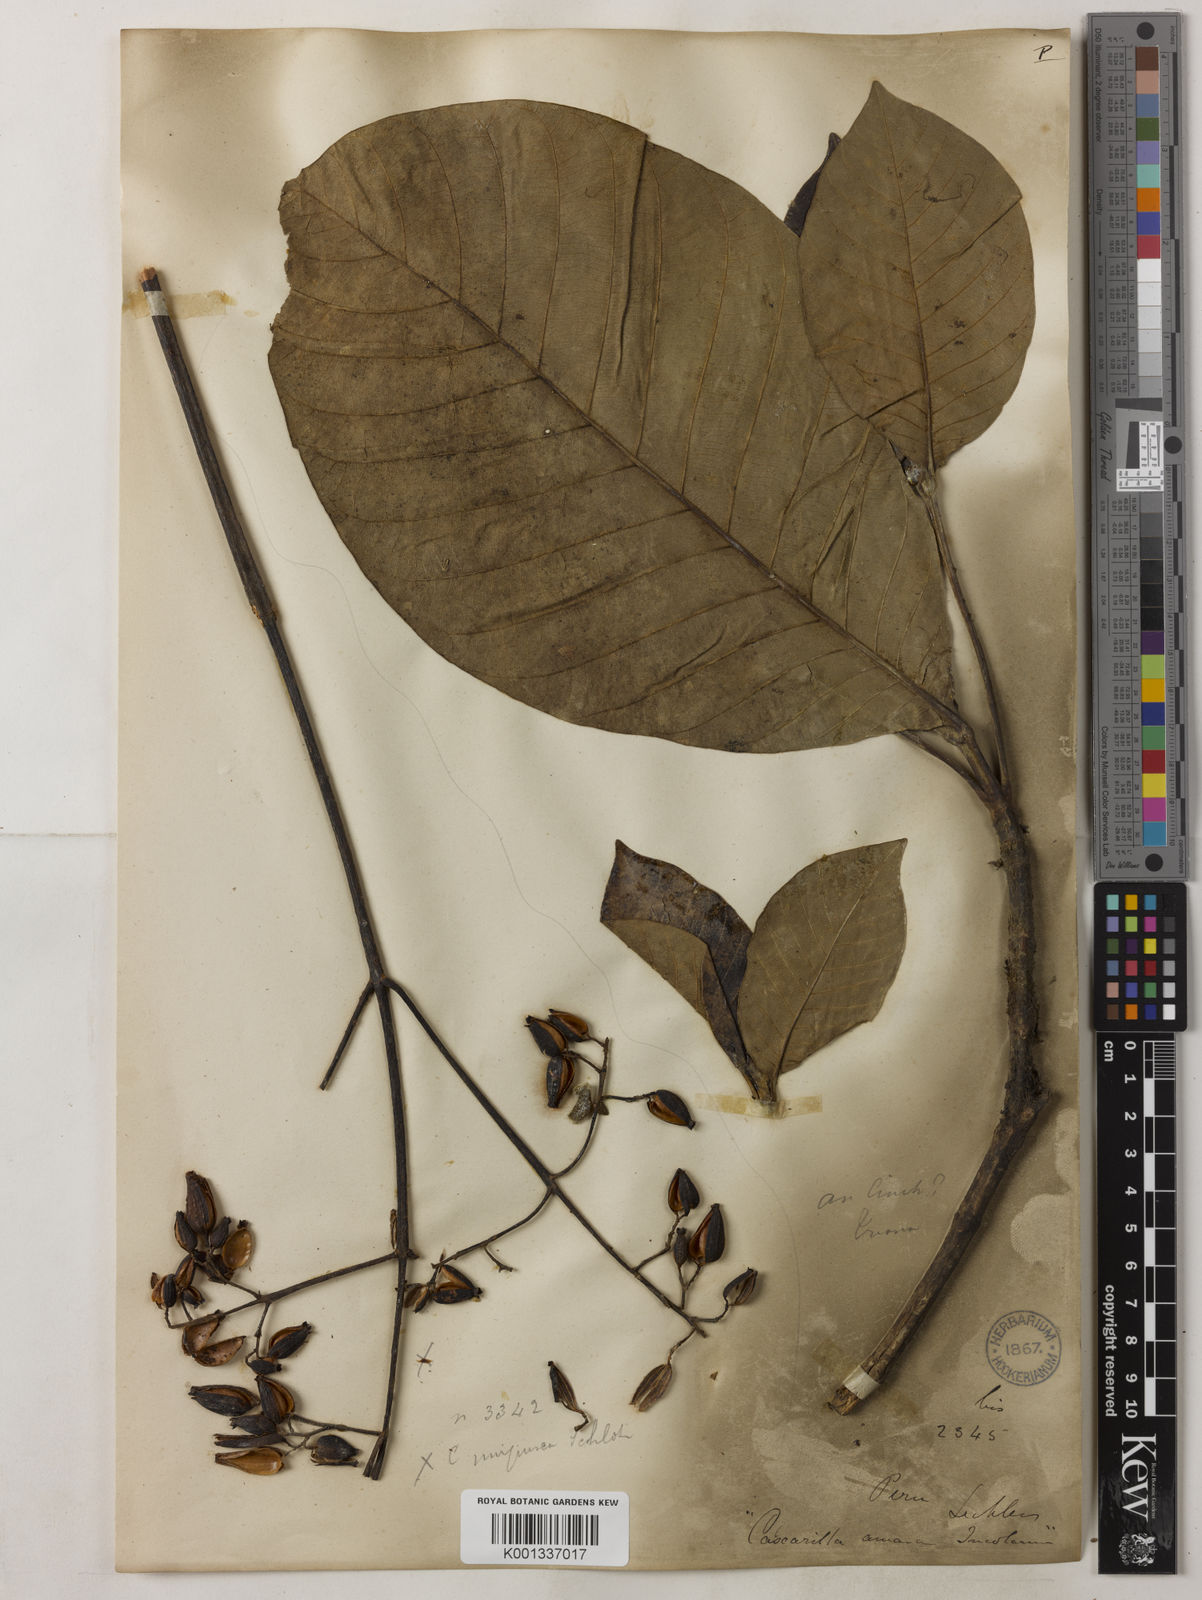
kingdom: Plantae
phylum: Tracheophyta
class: Magnoliopsida
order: Gentianales
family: Rubiaceae
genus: Cinchona
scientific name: Cinchona pubescens
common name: Quinine
